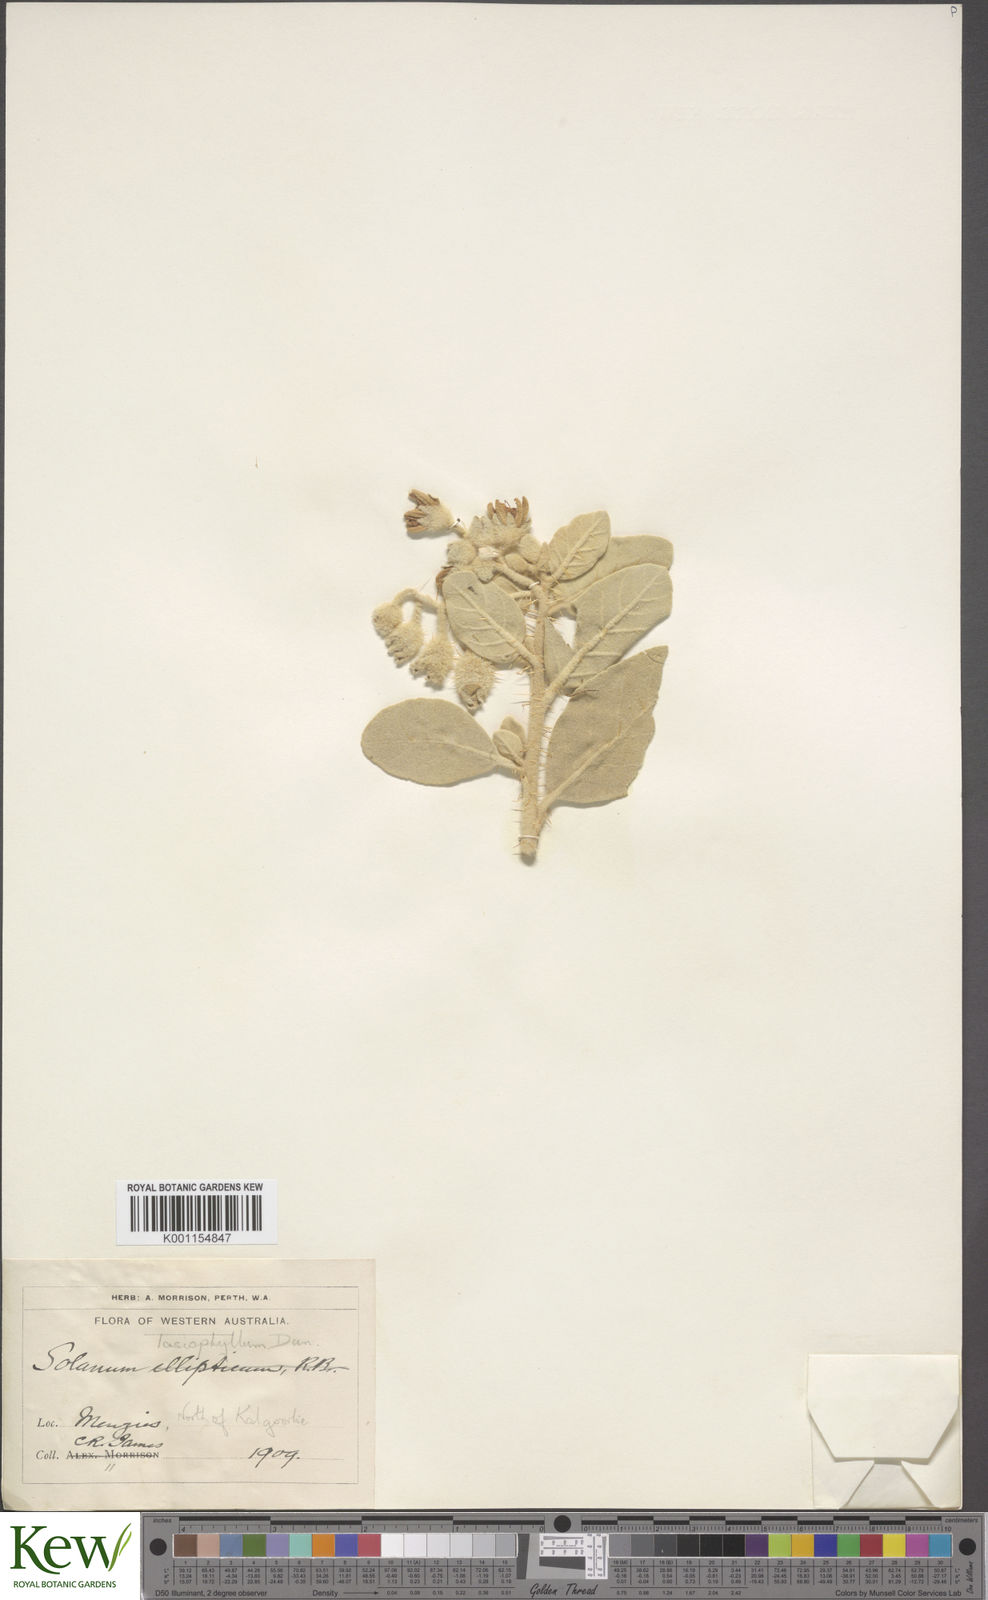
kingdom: Plantae
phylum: Tracheophyta
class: Magnoliopsida
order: Solanales
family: Solanaceae
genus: Solanum
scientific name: Solanum lasiophyllum
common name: Flannelbush
